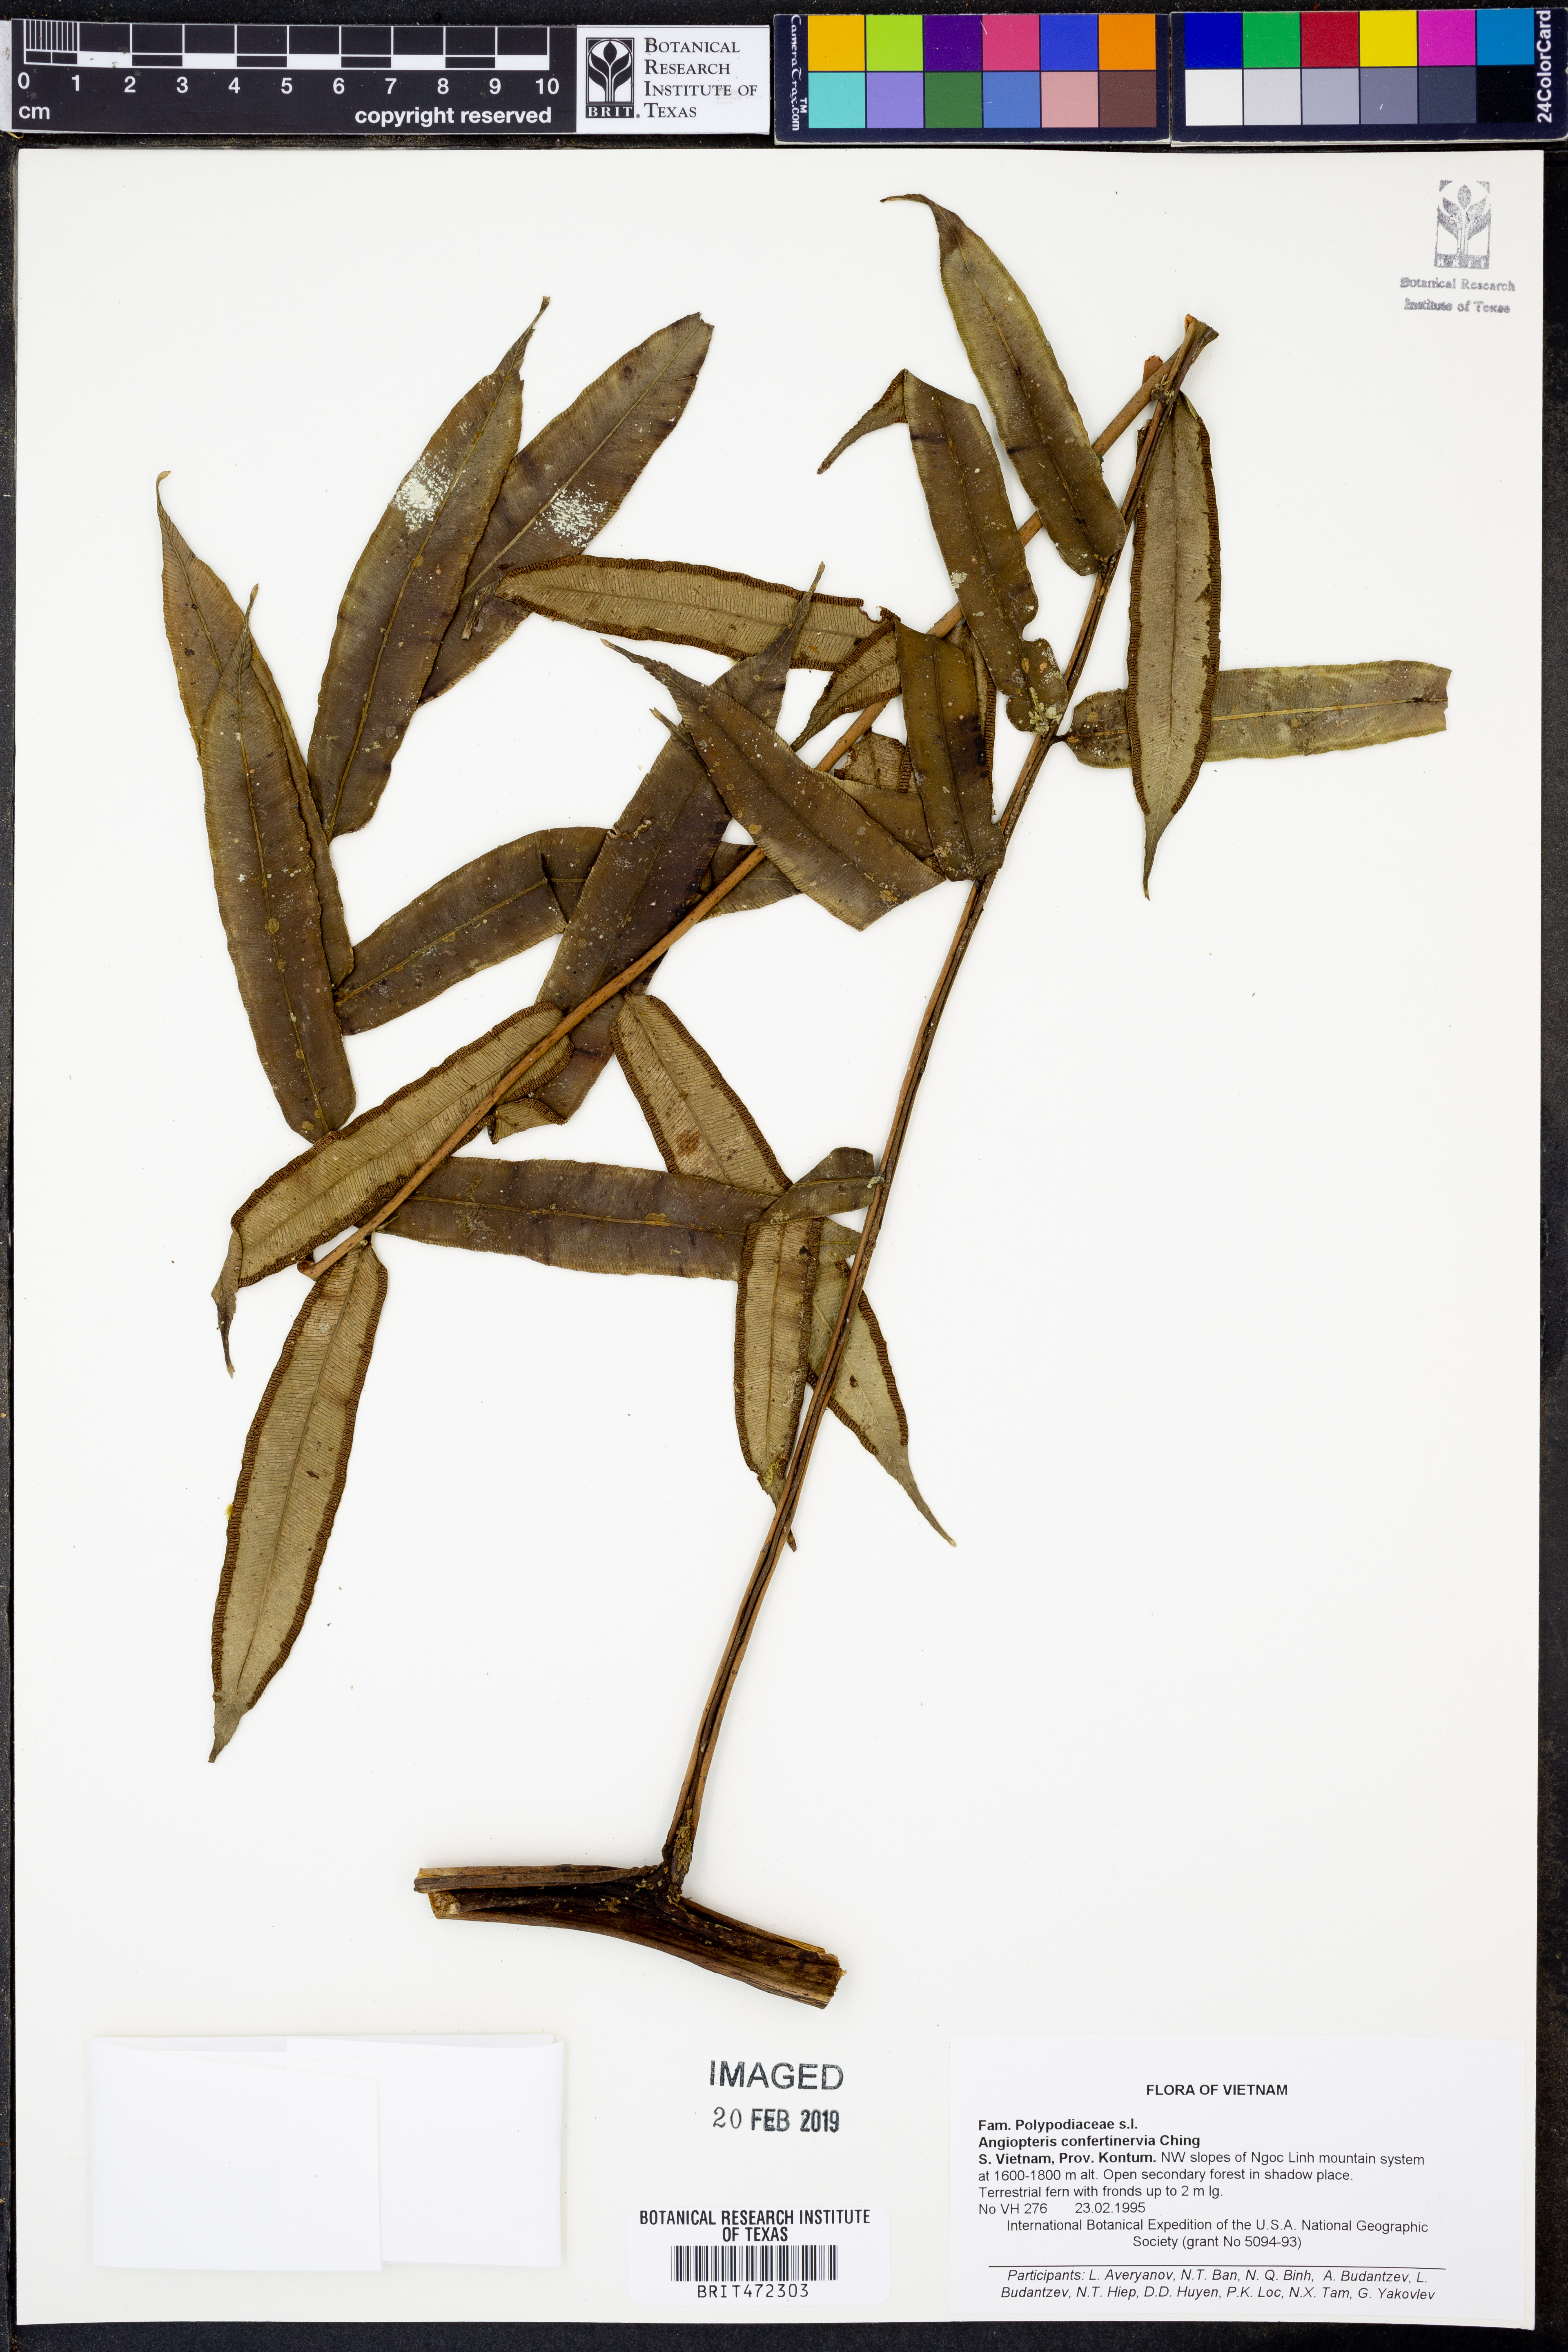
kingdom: Plantae
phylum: Tracheophyta
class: Polypodiopsida
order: Marattiales
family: Marattiaceae
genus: Angiopteris
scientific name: Angiopteris confertinervia
